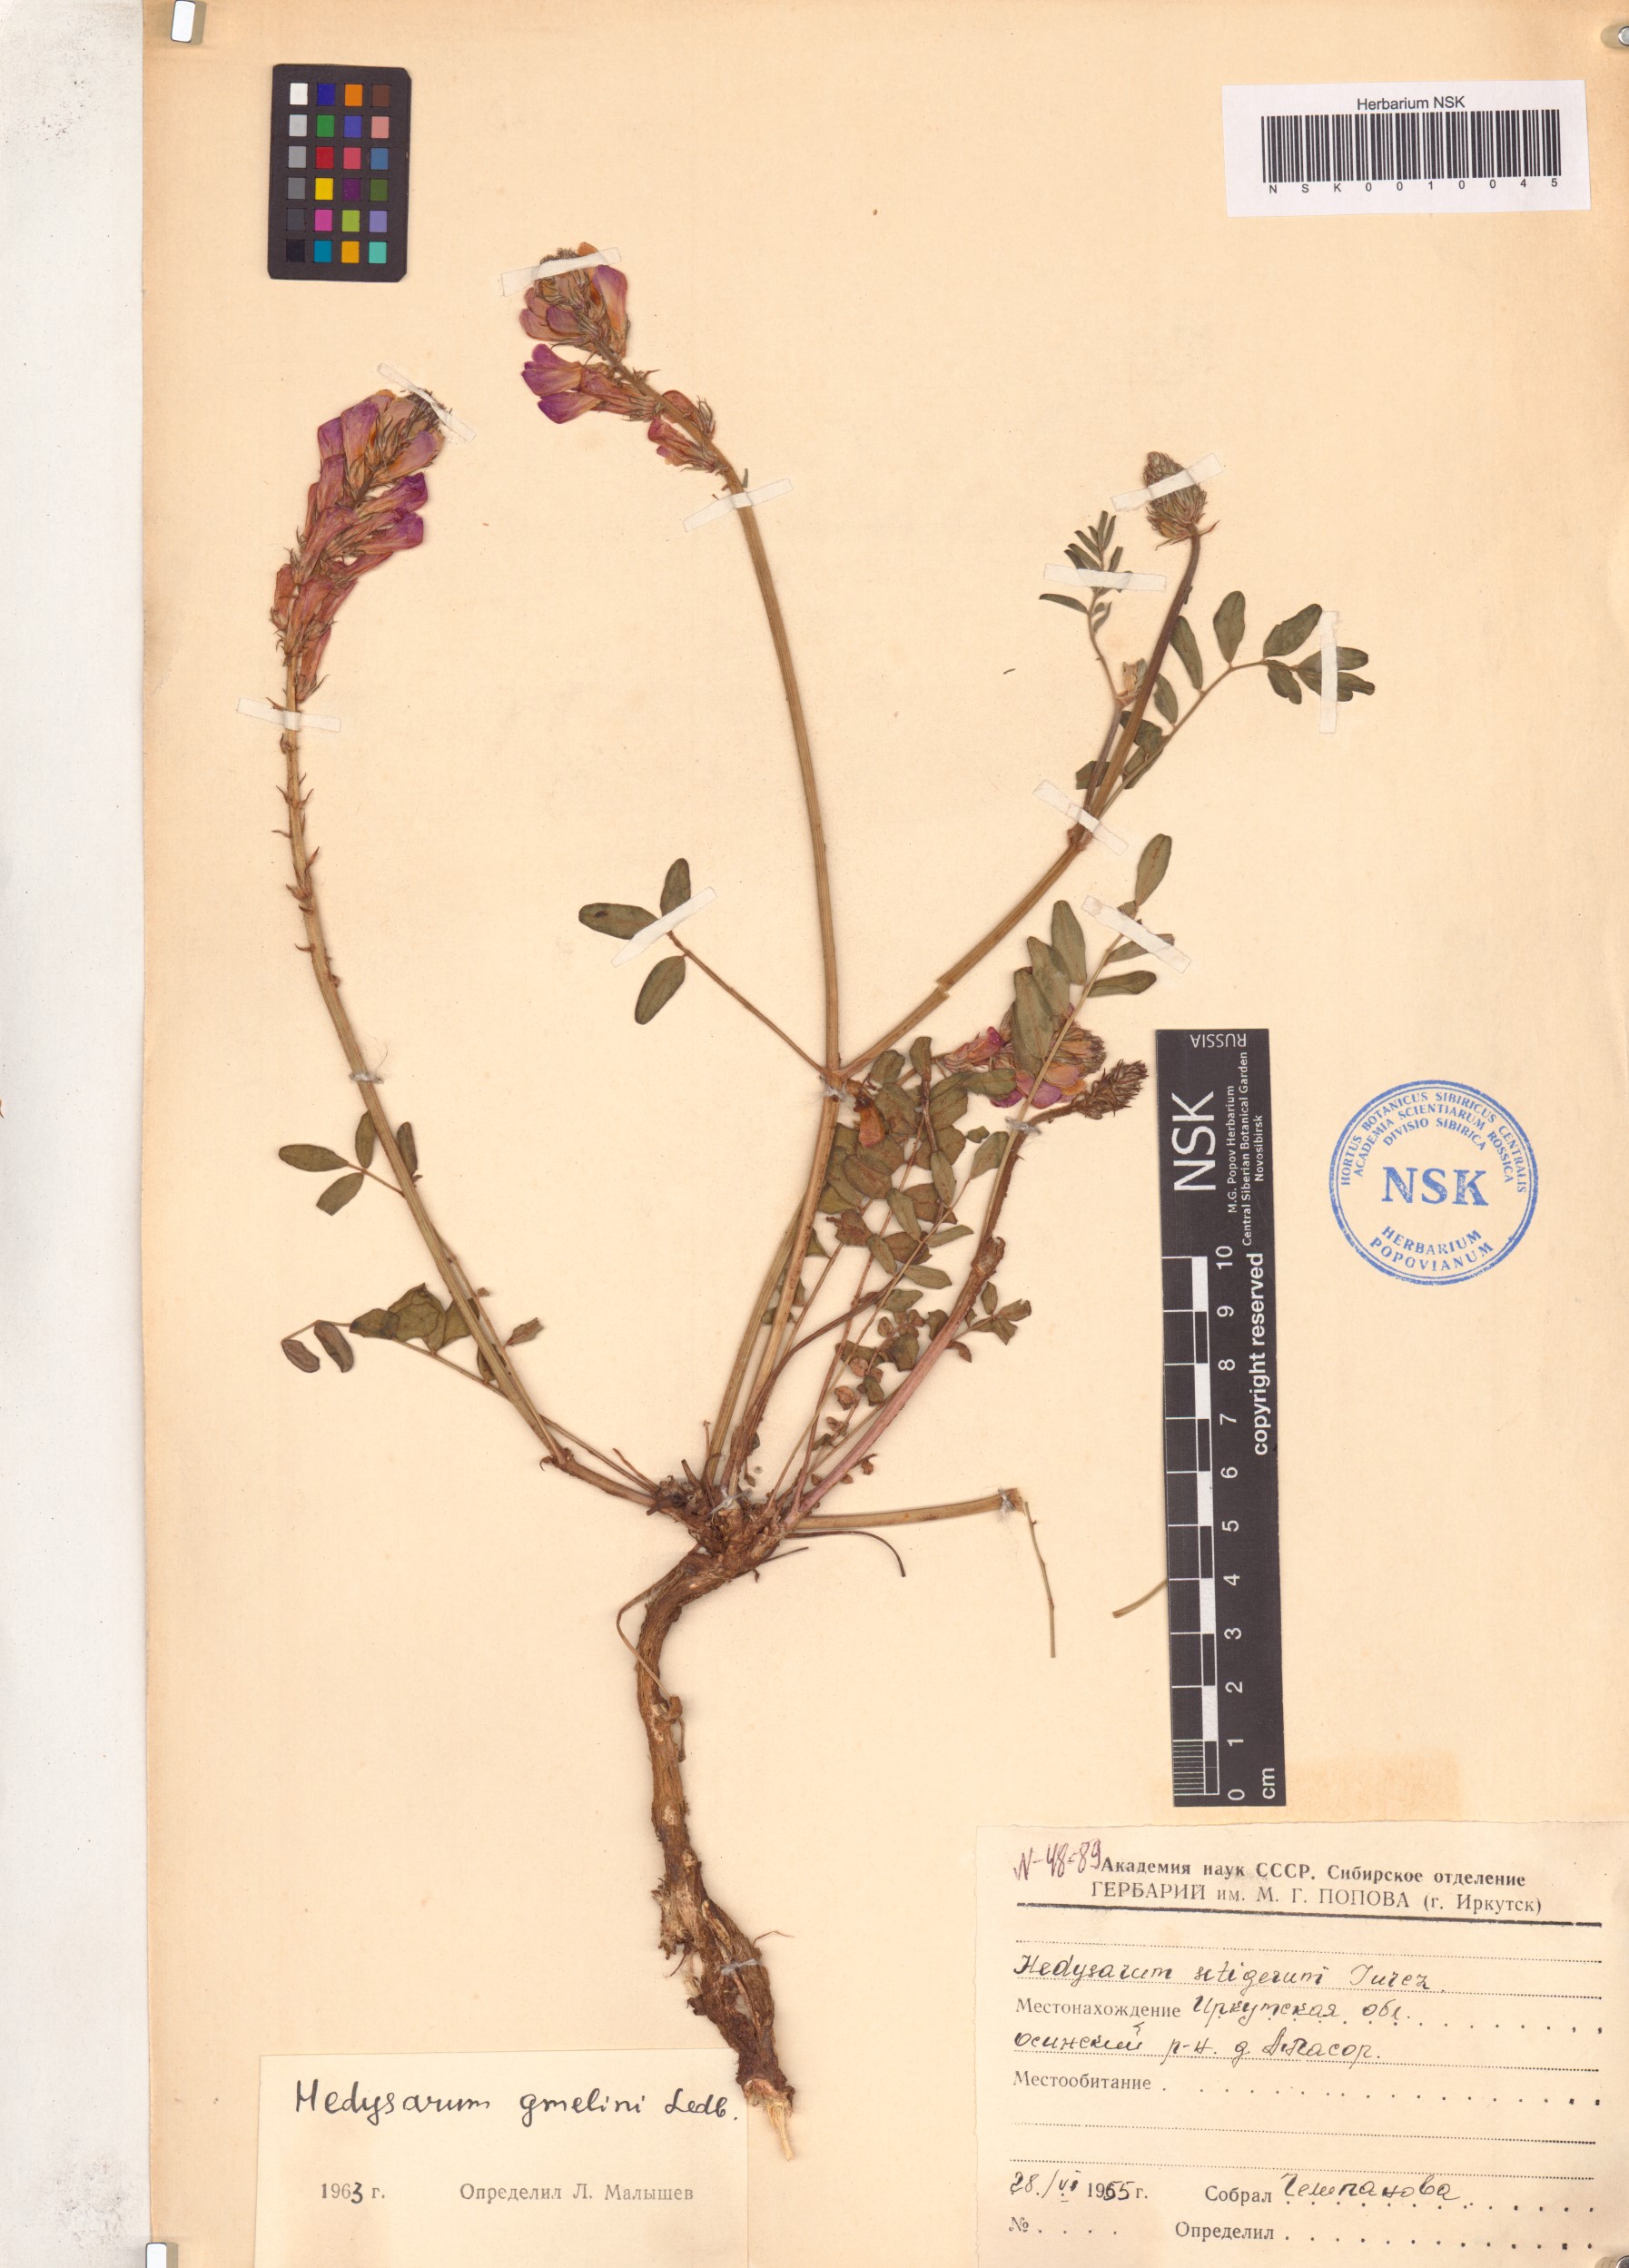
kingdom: Plantae
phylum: Tracheophyta
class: Magnoliopsida
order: Fabales
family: Fabaceae
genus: Hedysarum
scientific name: Hedysarum gmelinii
